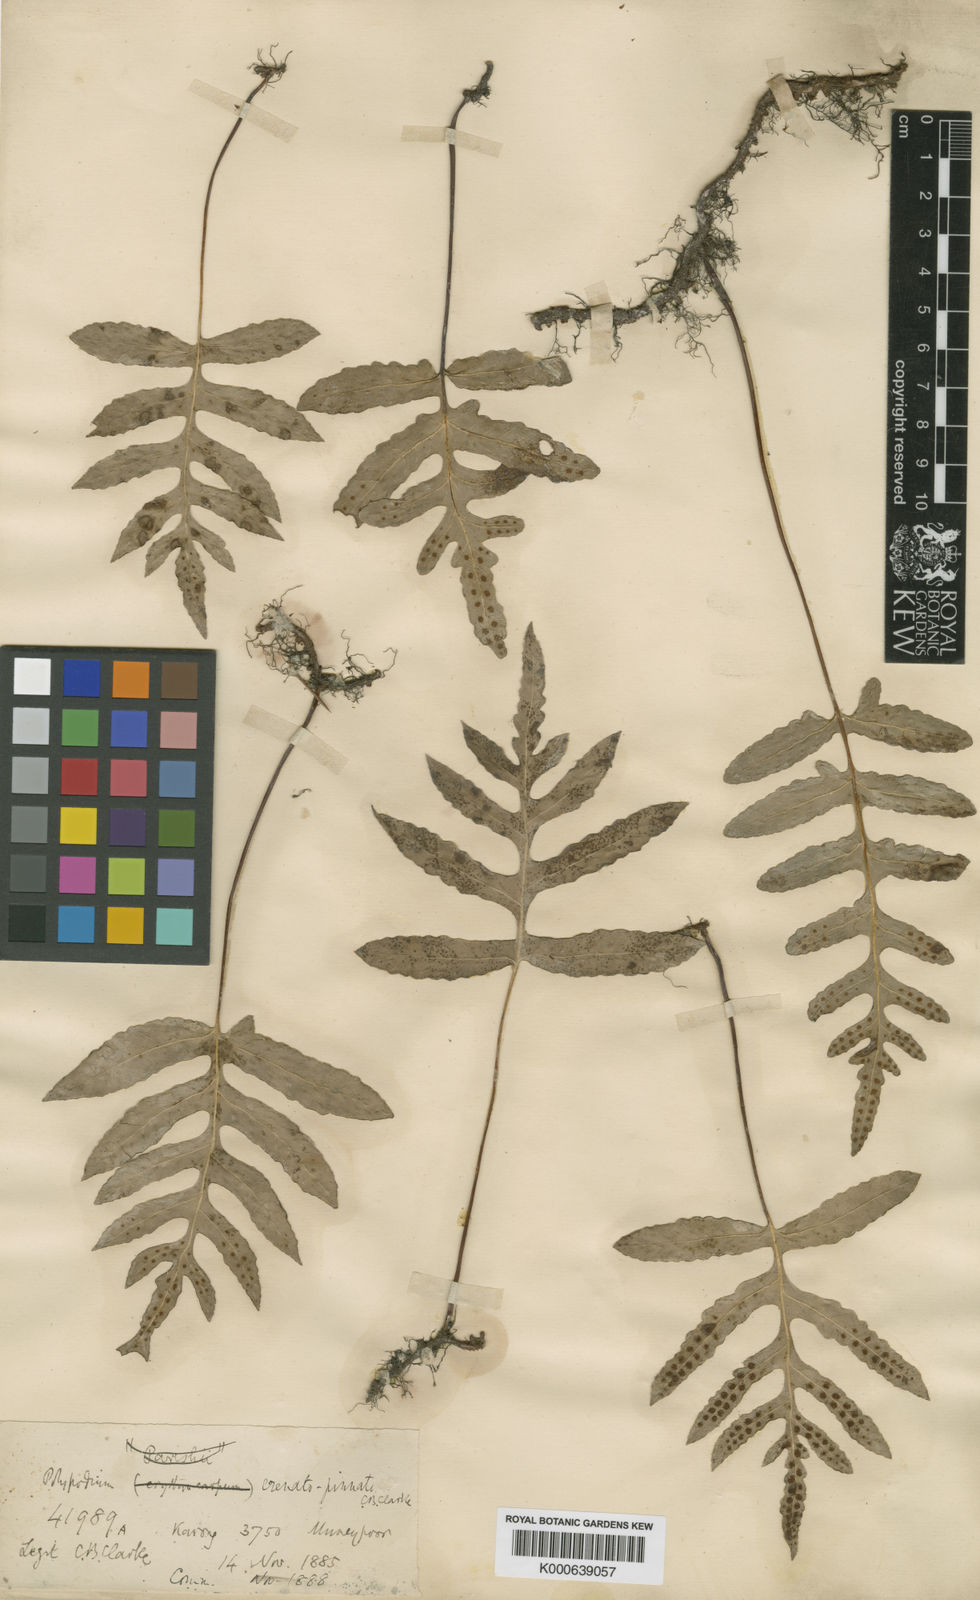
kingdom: Plantae
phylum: Tracheophyta
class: Polypodiopsida
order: Polypodiales
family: Polypodiaceae
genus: Selliguea
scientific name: Selliguea
